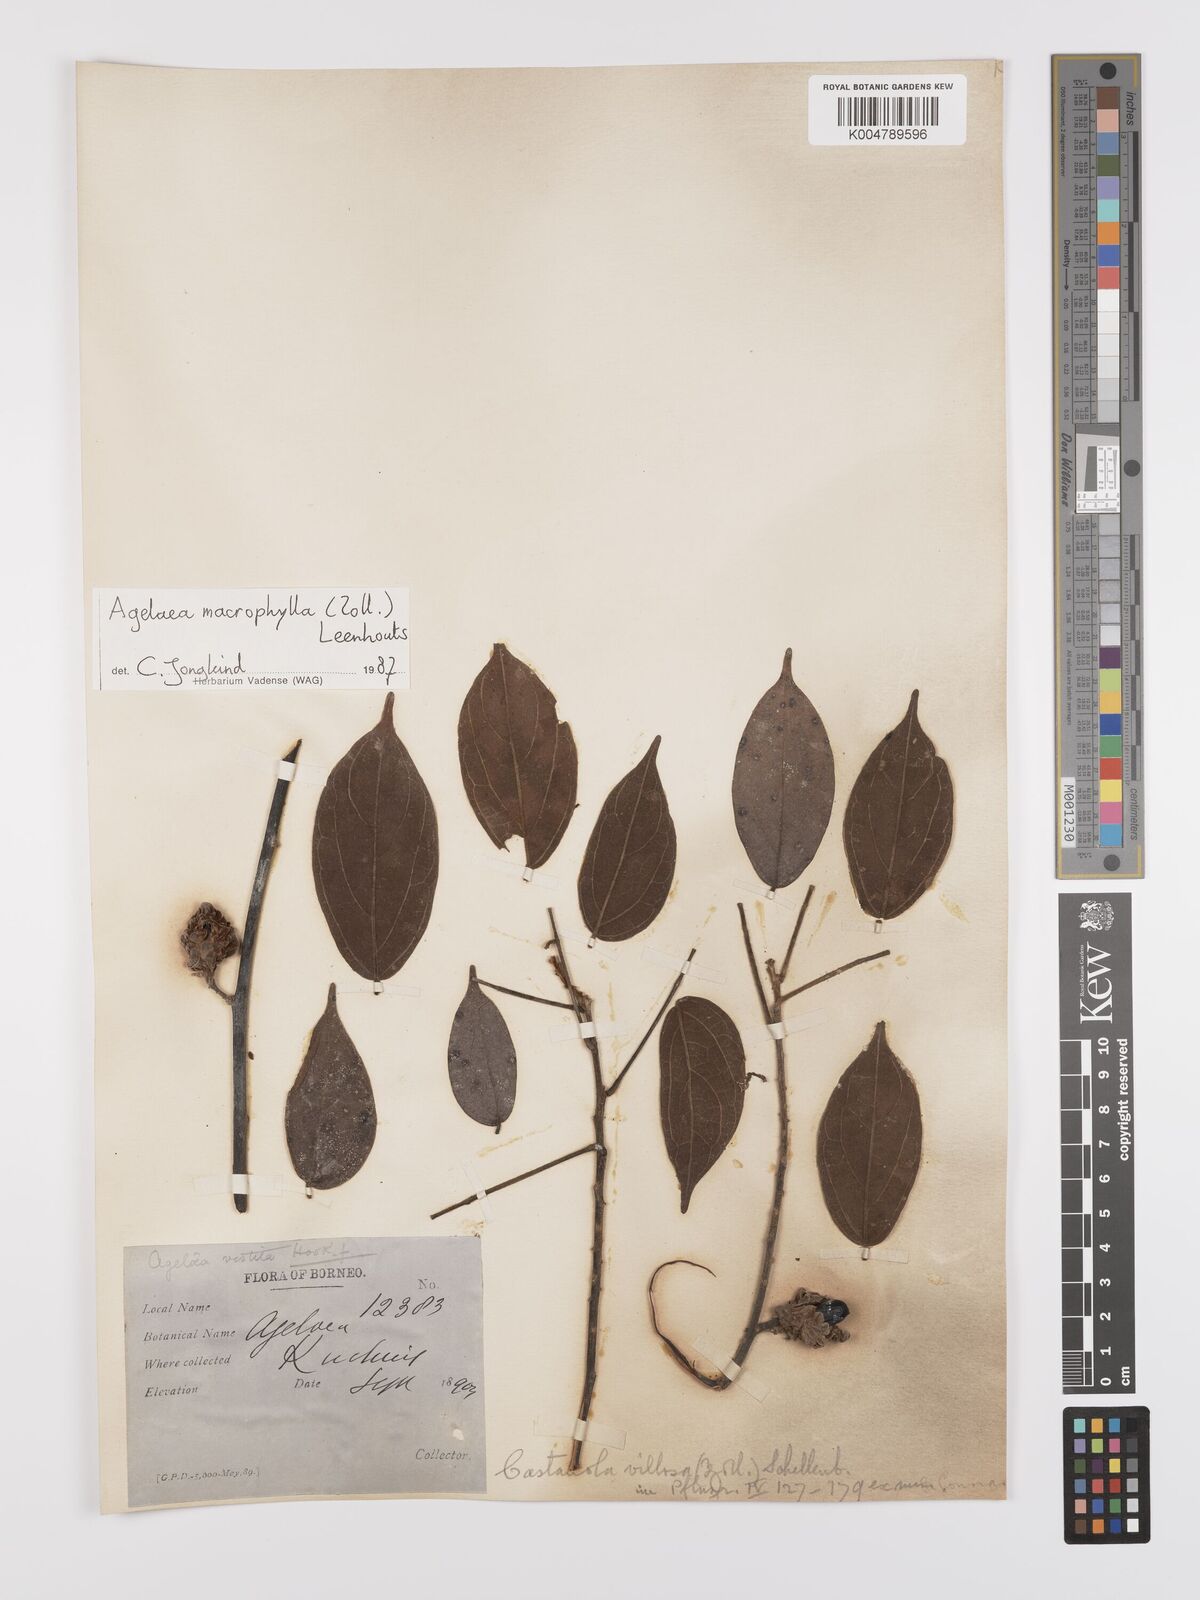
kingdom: Plantae
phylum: Tracheophyta
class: Magnoliopsida
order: Oxalidales
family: Connaraceae
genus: Agelaea
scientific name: Agelaea borneensis
